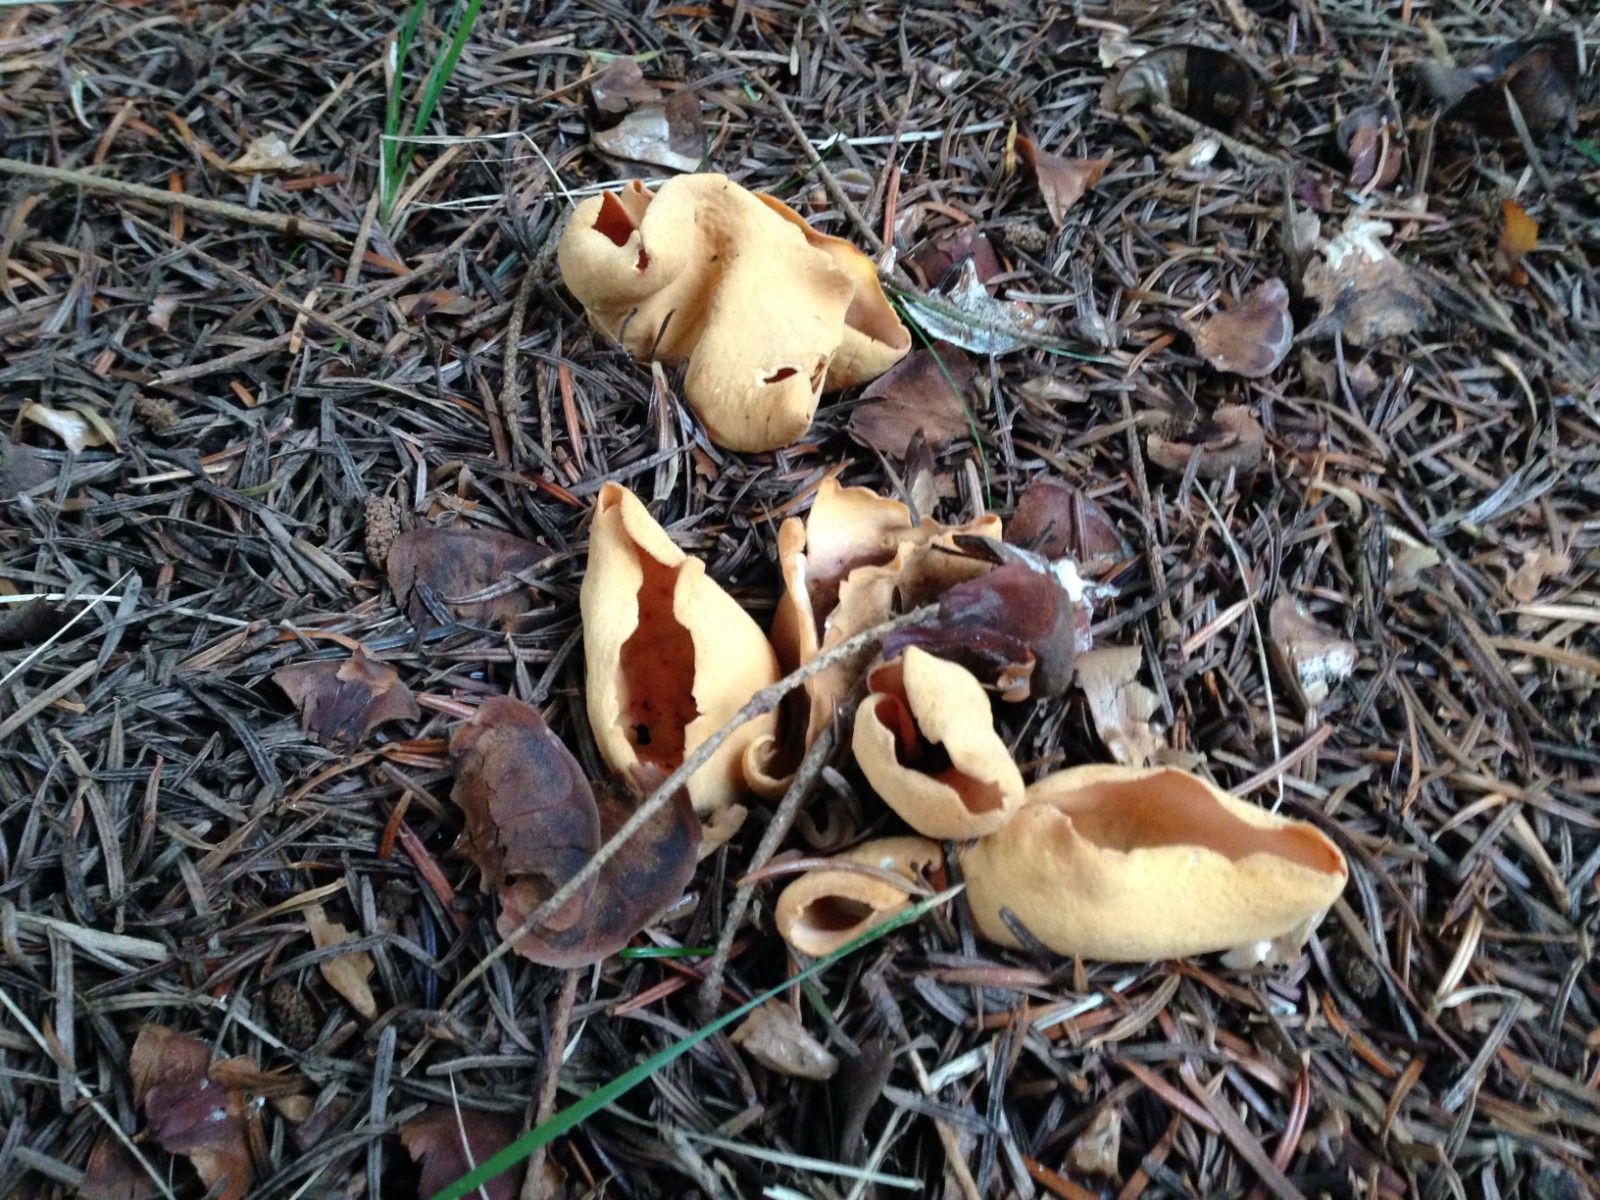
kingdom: Fungi
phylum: Ascomycota
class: Pezizomycetes
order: Pezizales
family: Otideaceae
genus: Otidea
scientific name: Otidea onotica
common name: æsel-ørebæger
